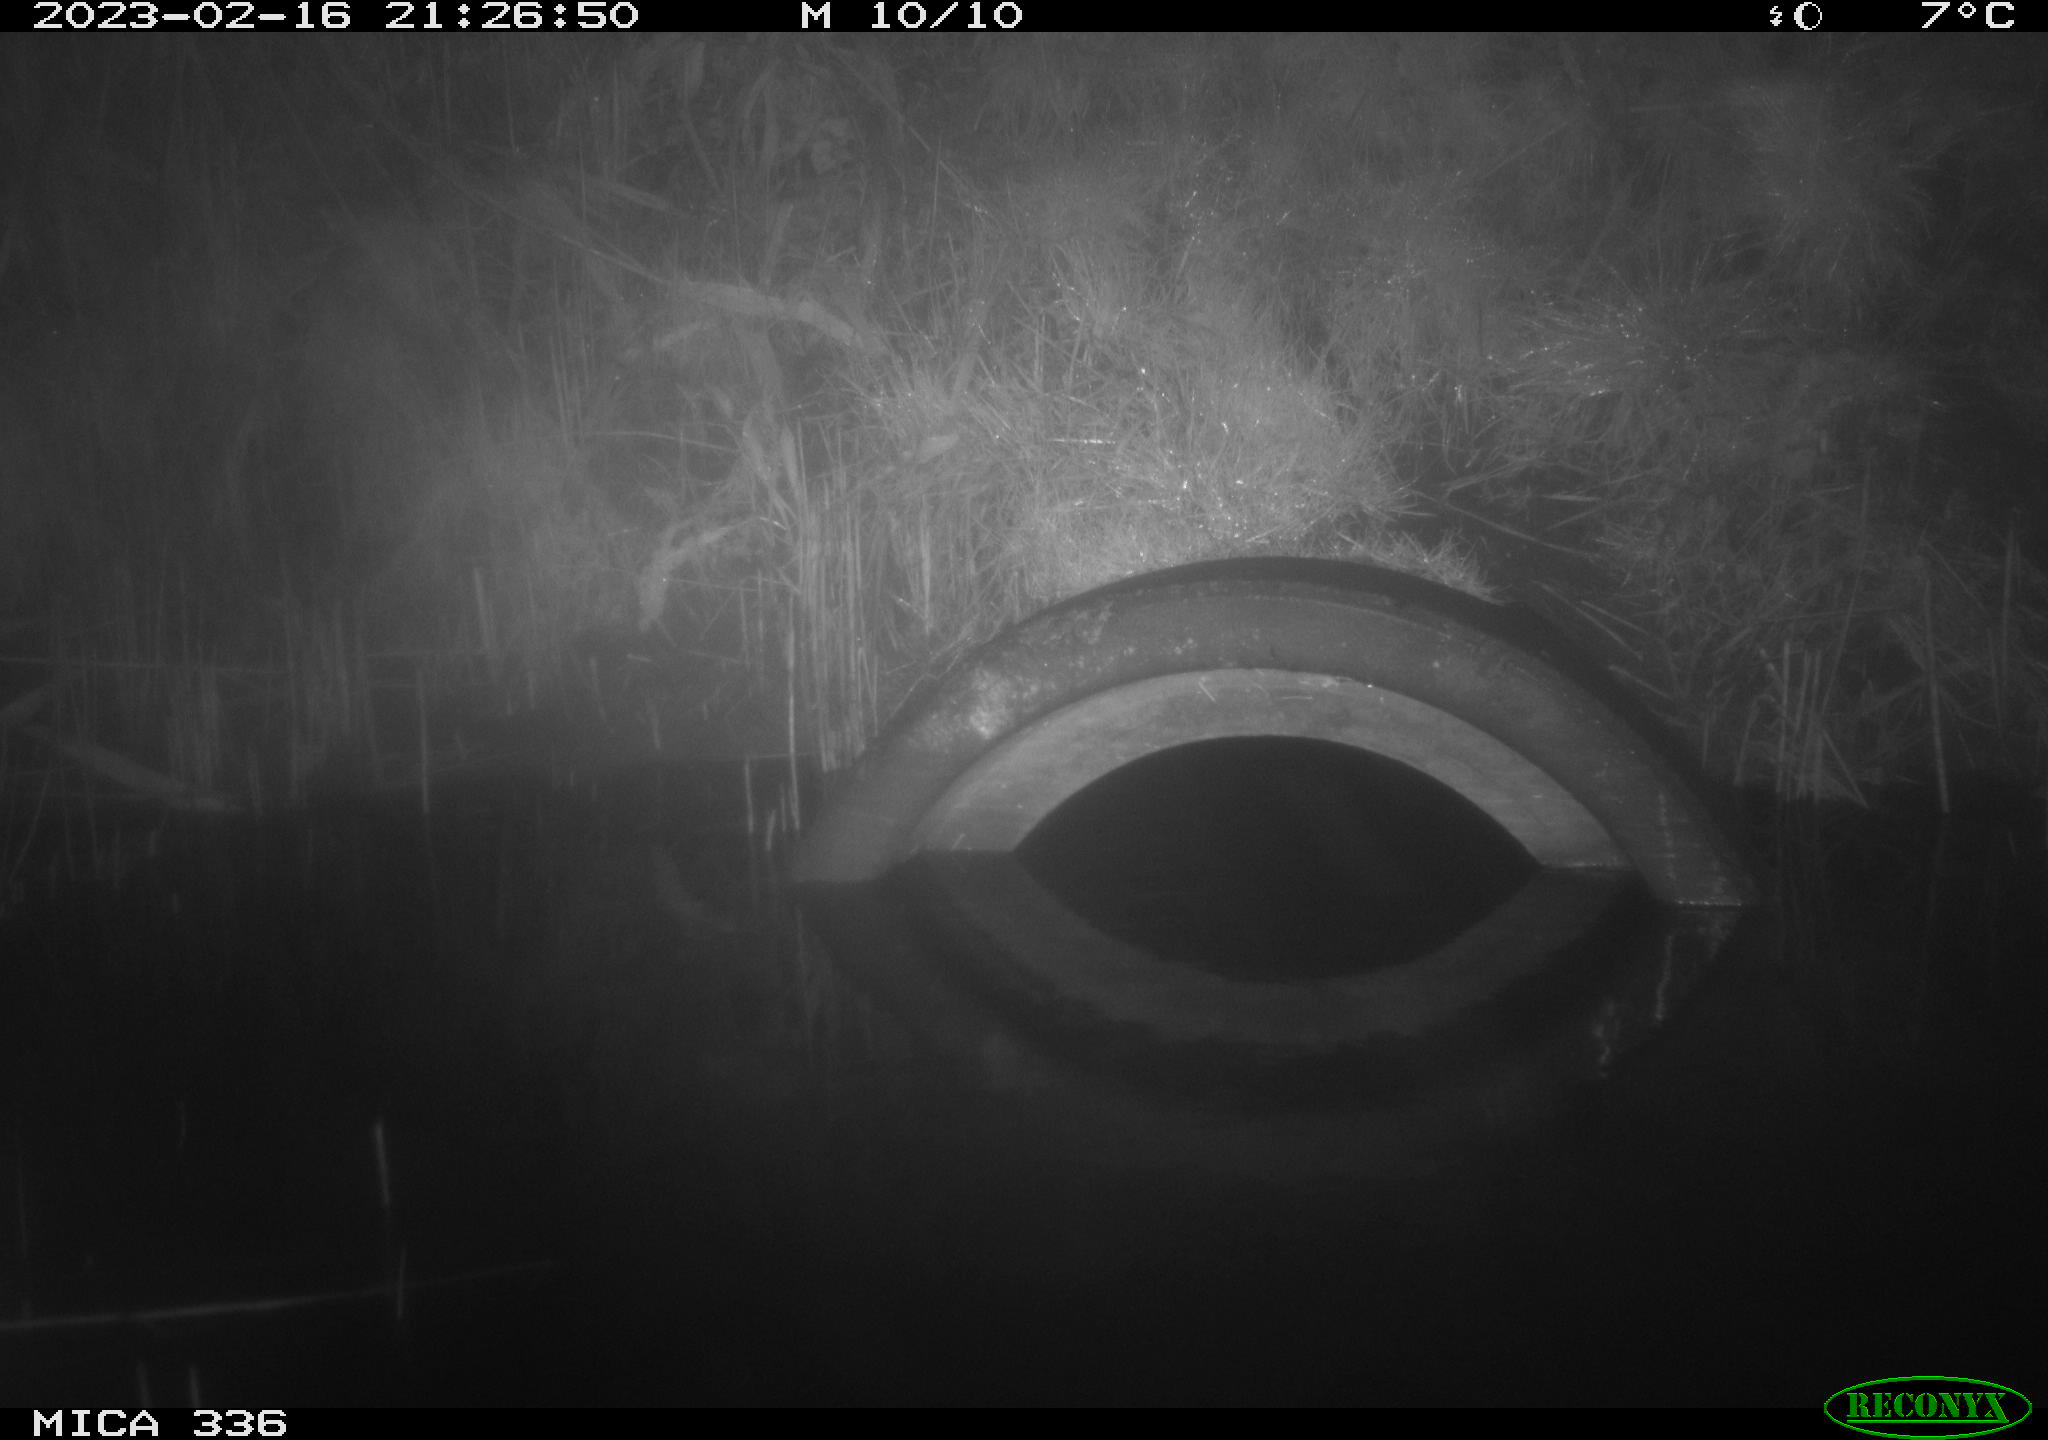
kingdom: Animalia
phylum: Chordata
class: Mammalia
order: Rodentia
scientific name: Rodentia
